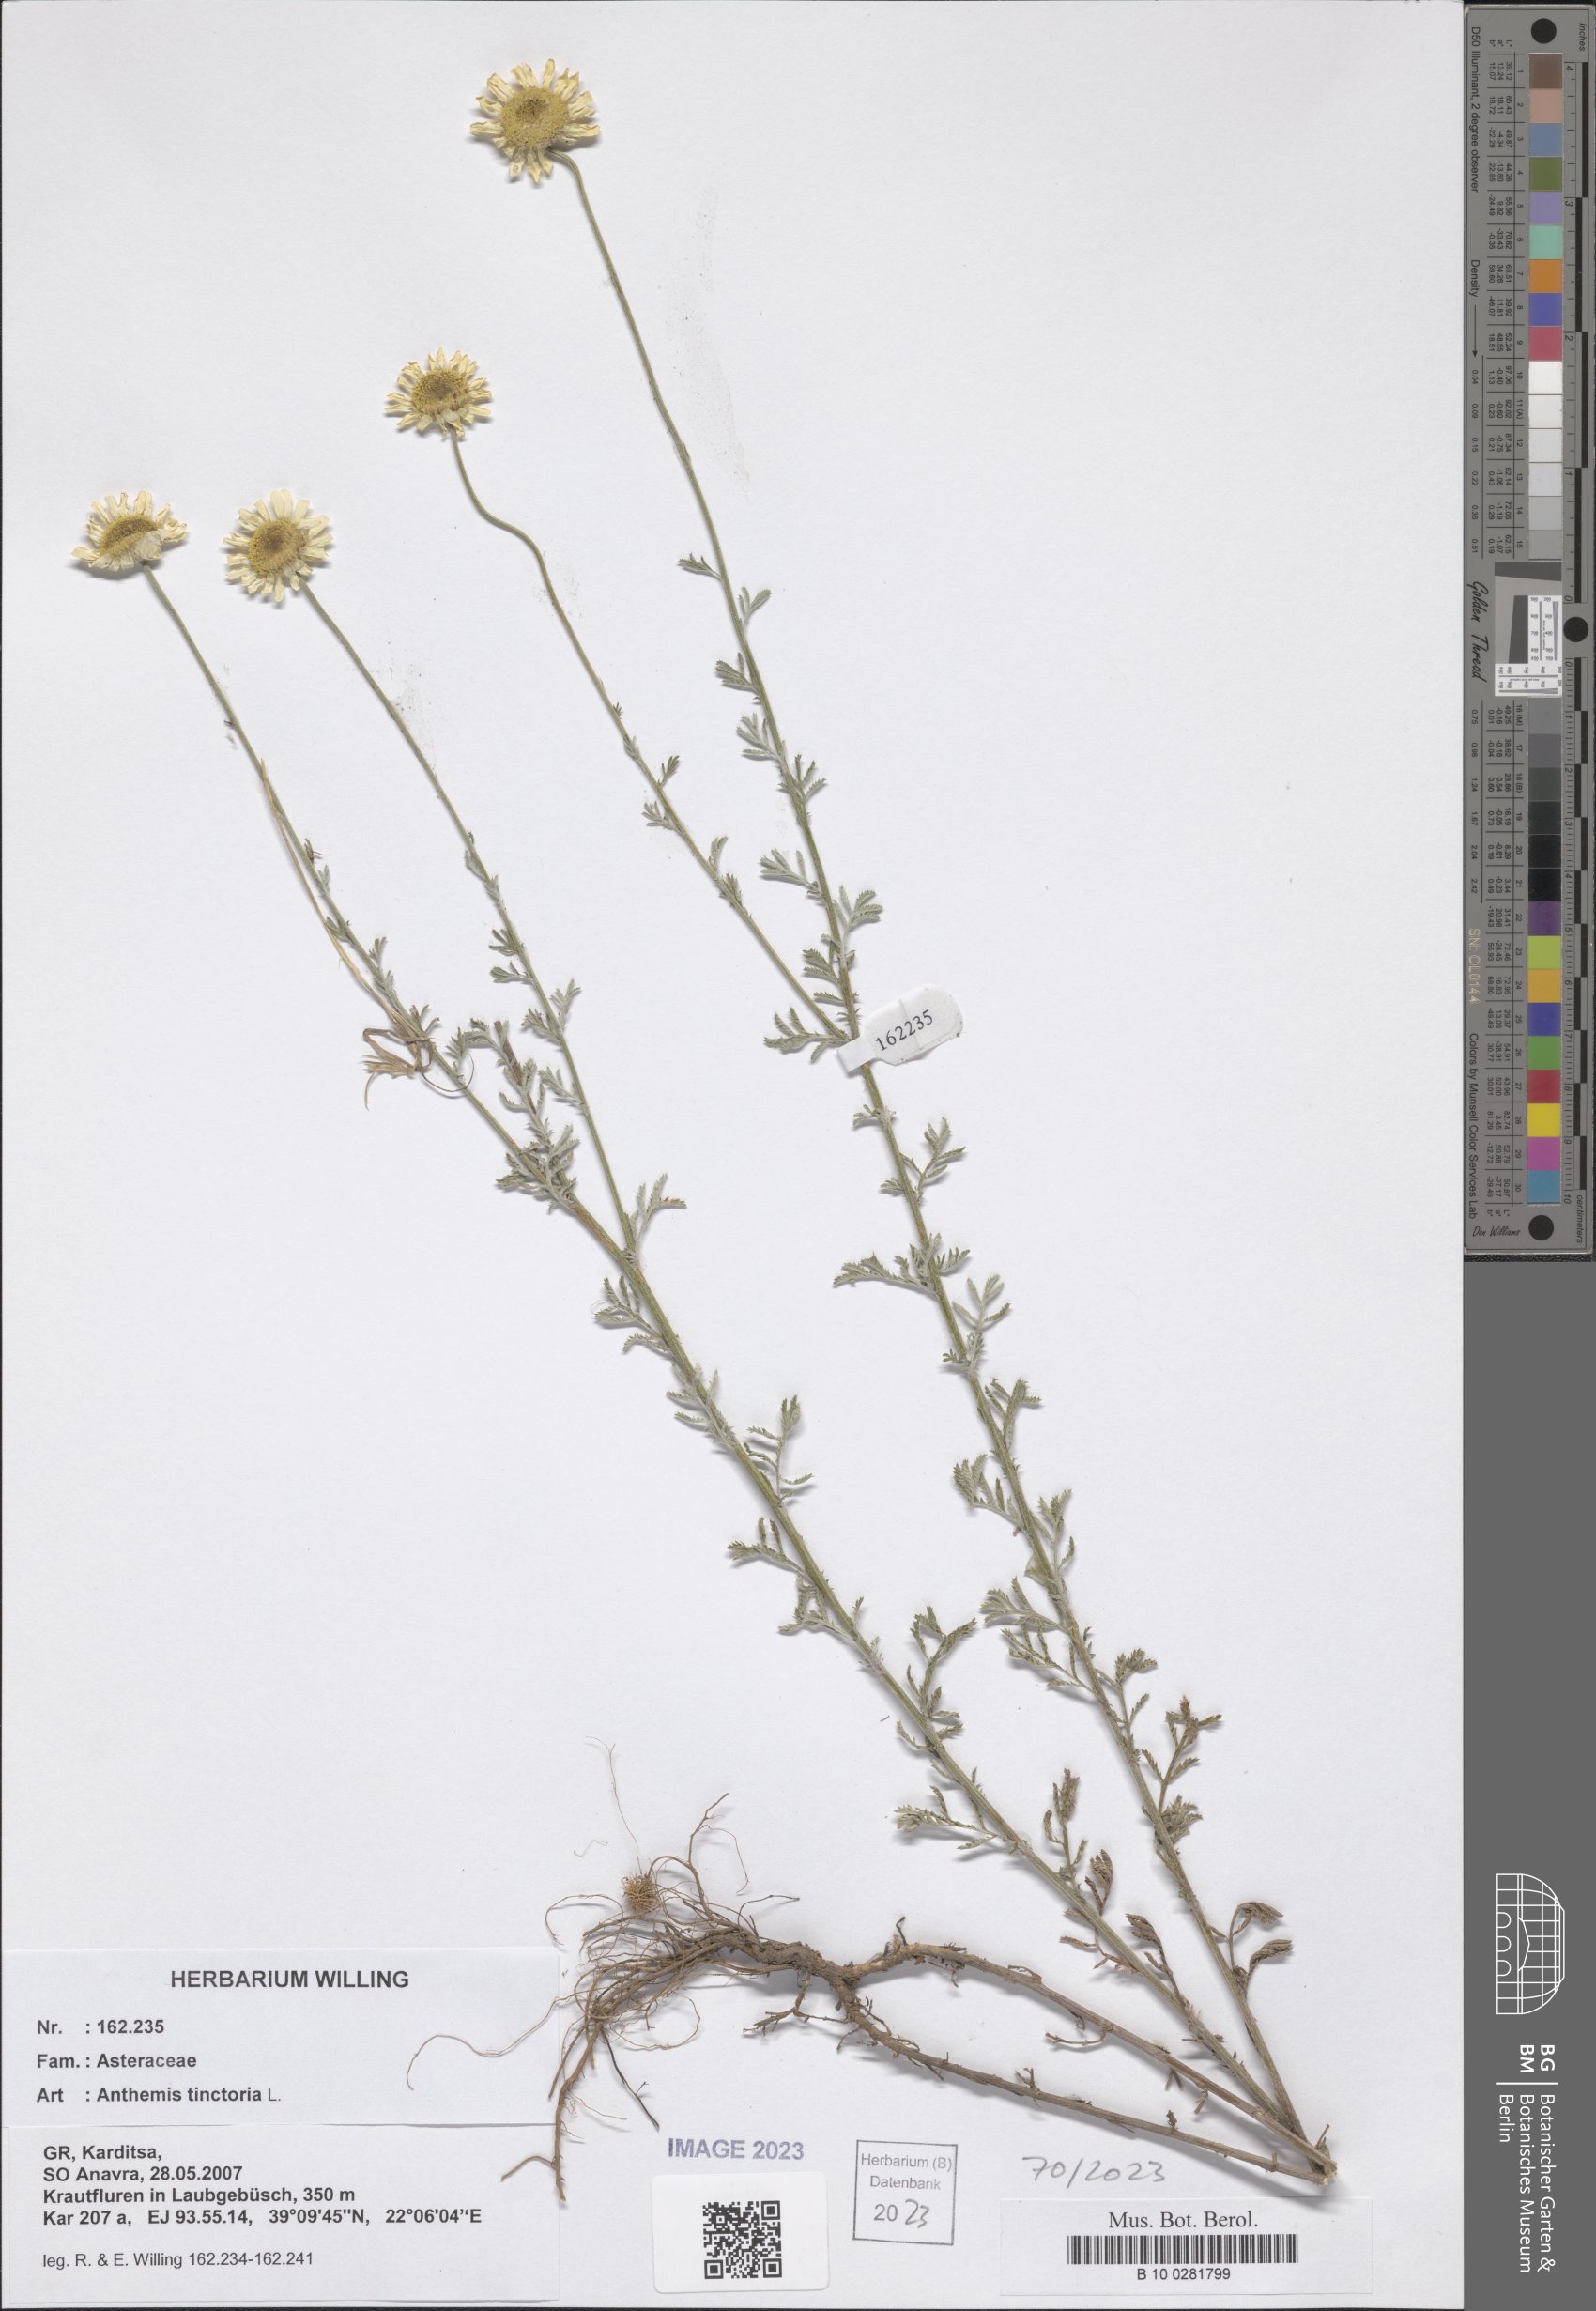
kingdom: Plantae
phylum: Tracheophyta
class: Magnoliopsida
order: Asterales
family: Asteraceae
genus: Cota
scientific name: Cota tinctoria
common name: Golden chamomile
